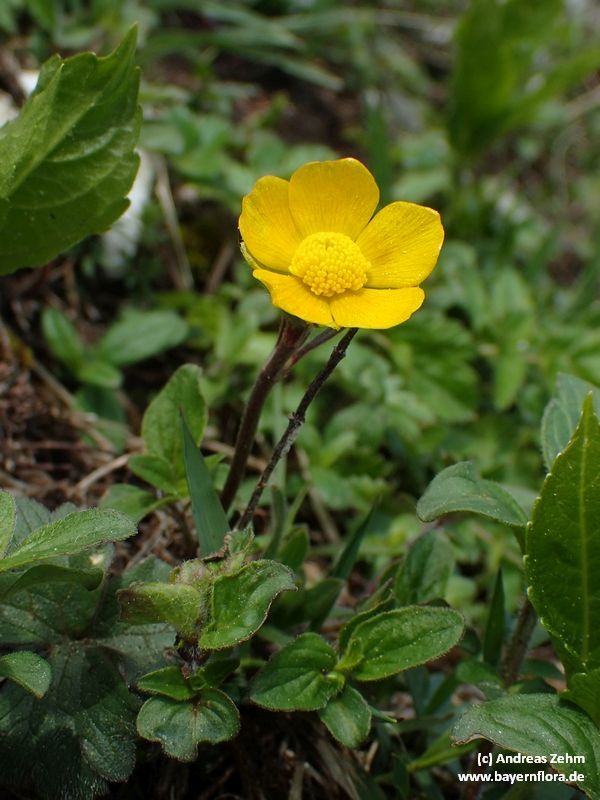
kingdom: Plantae
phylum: Tracheophyta
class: Magnoliopsida
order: Ranunculales
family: Ranunculaceae
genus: Ranunculus
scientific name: Ranunculus breyninus
